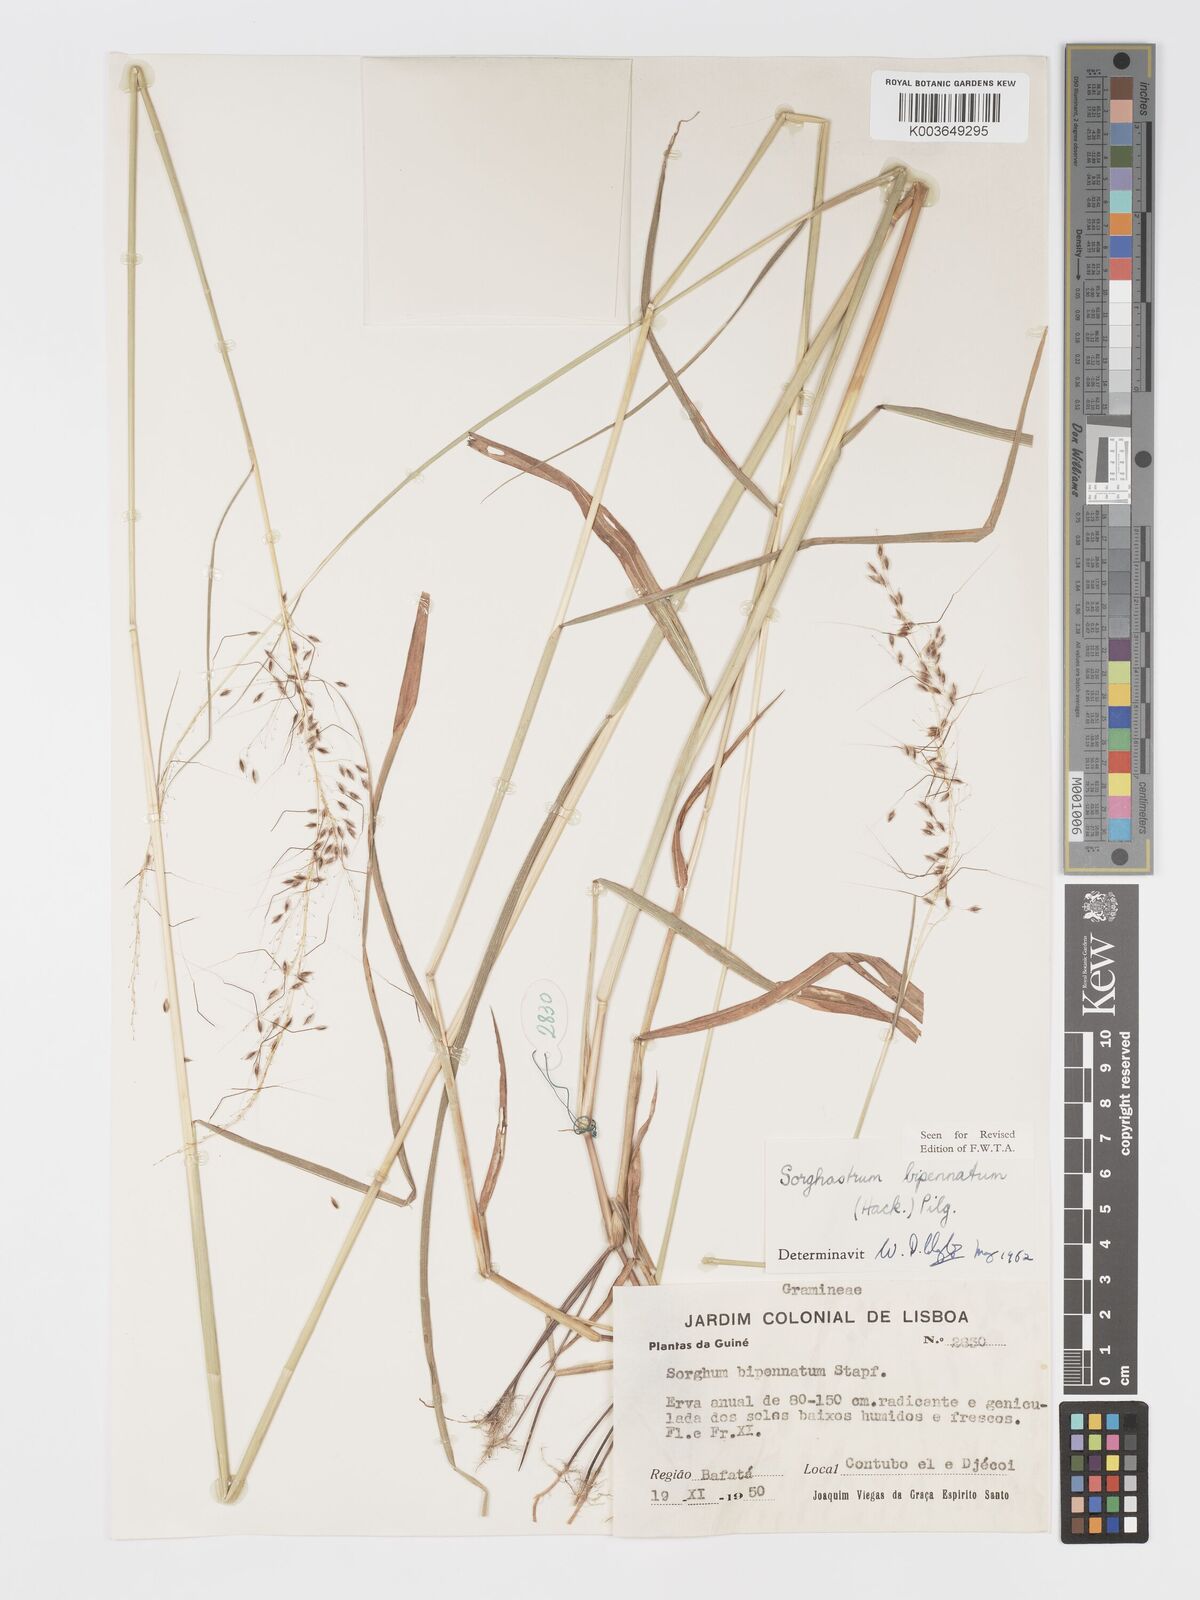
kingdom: Plantae
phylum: Tracheophyta
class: Liliopsida
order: Poales
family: Poaceae
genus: Sorghastrum
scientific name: Sorghastrum incompletum
